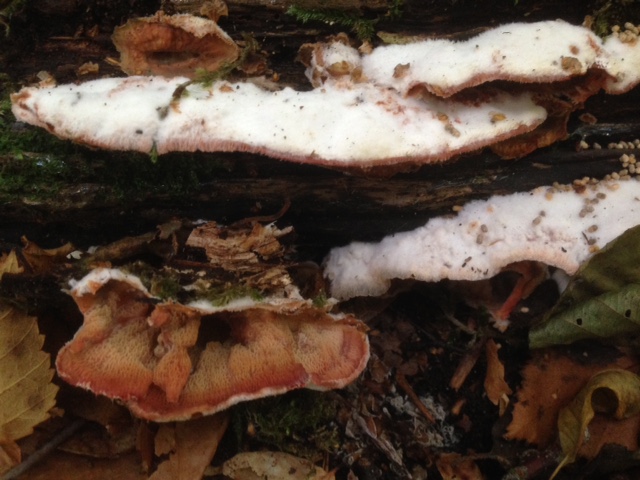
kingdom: Fungi
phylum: Basidiomycota
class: Agaricomycetes
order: Polyporales
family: Meruliaceae
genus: Phlebia
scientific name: Phlebia tremellosa
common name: bævrende åresvamp
